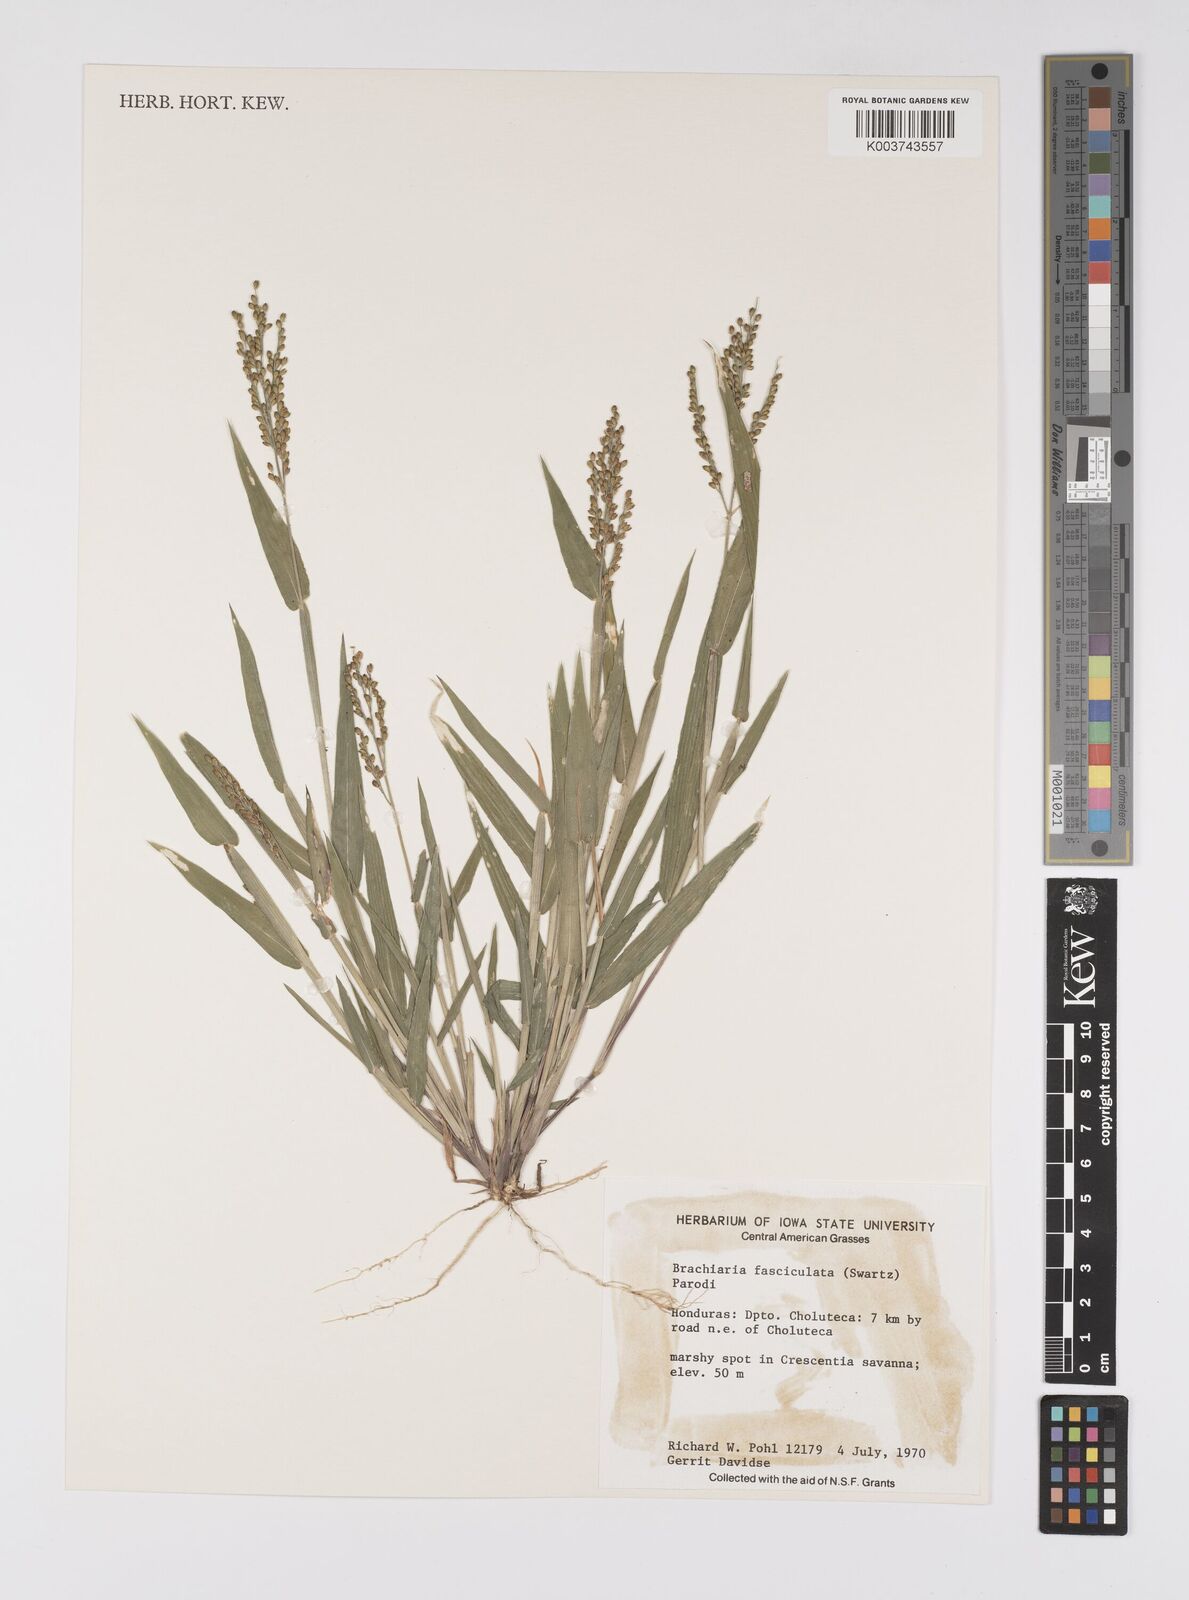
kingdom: Plantae
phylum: Tracheophyta
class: Liliopsida
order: Poales
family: Poaceae
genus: Urochloa
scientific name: Urochloa fusca
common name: Browntop signal grass
